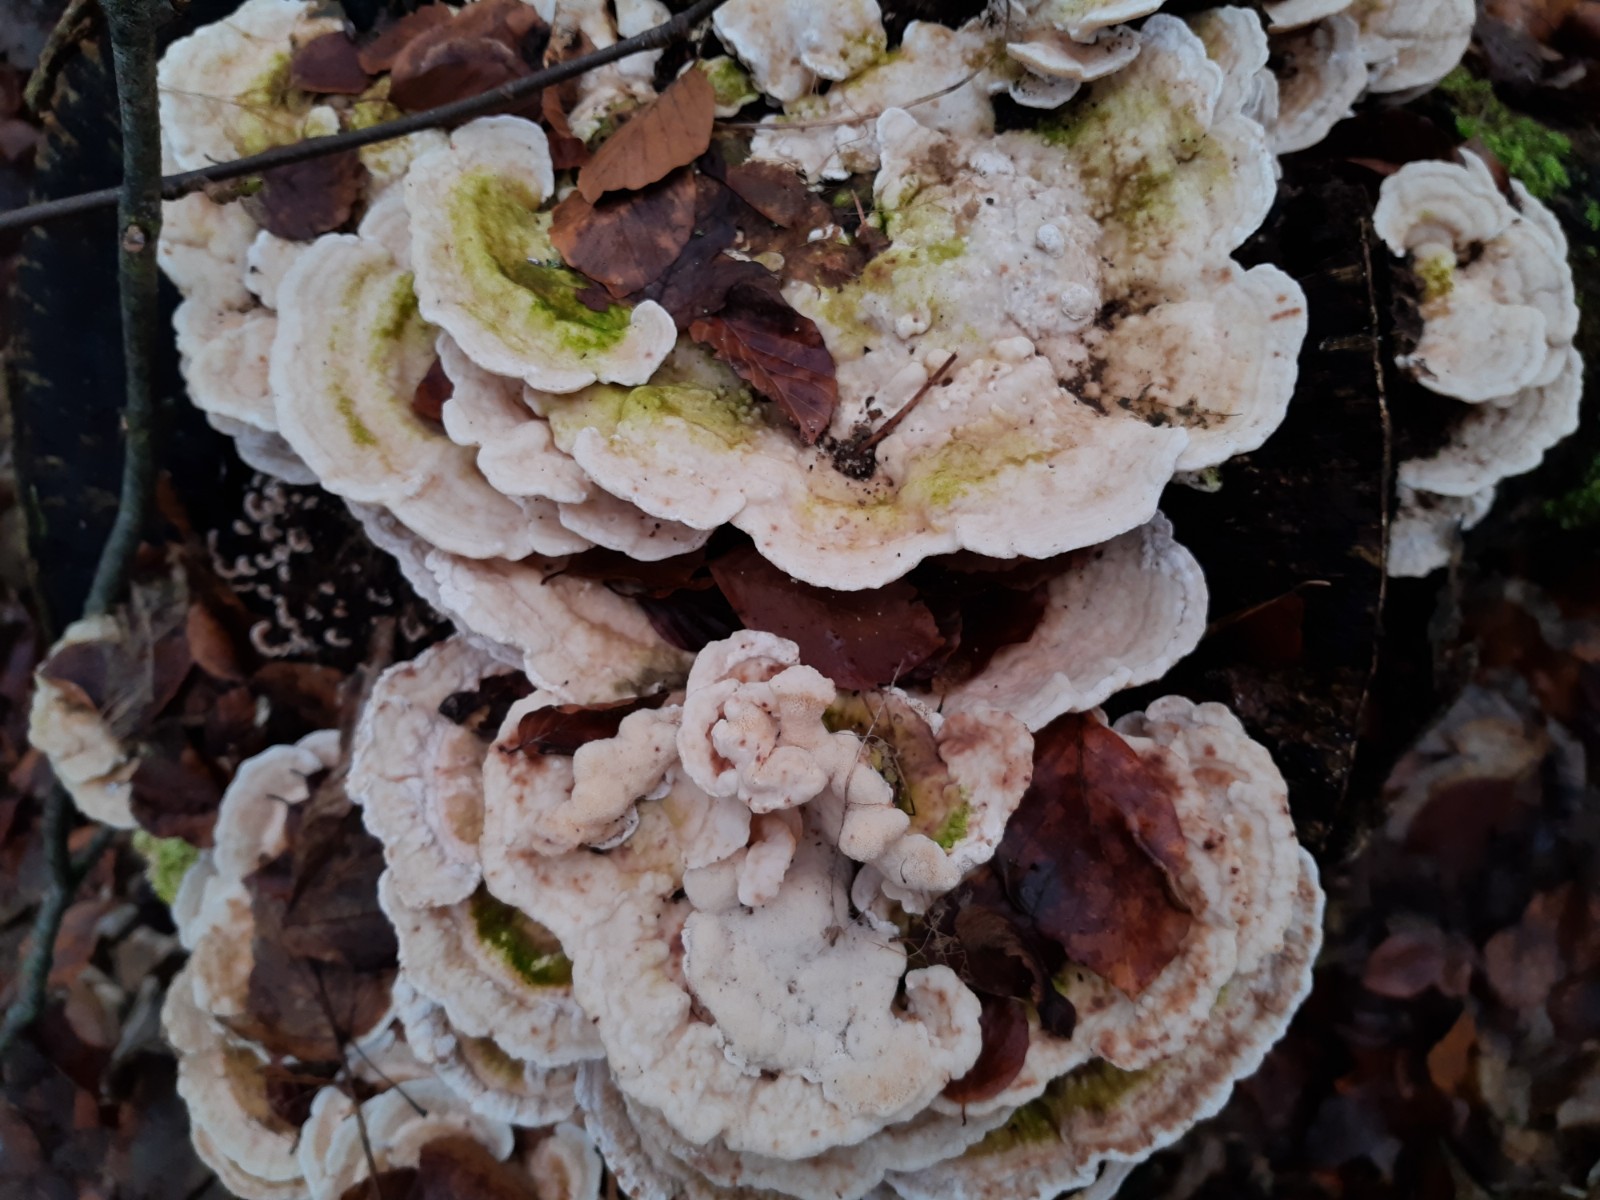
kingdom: Fungi
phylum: Basidiomycota
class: Agaricomycetes
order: Polyporales
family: Polyporaceae
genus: Trametes
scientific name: Trametes gibbosa
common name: puklet læderporesvamp
